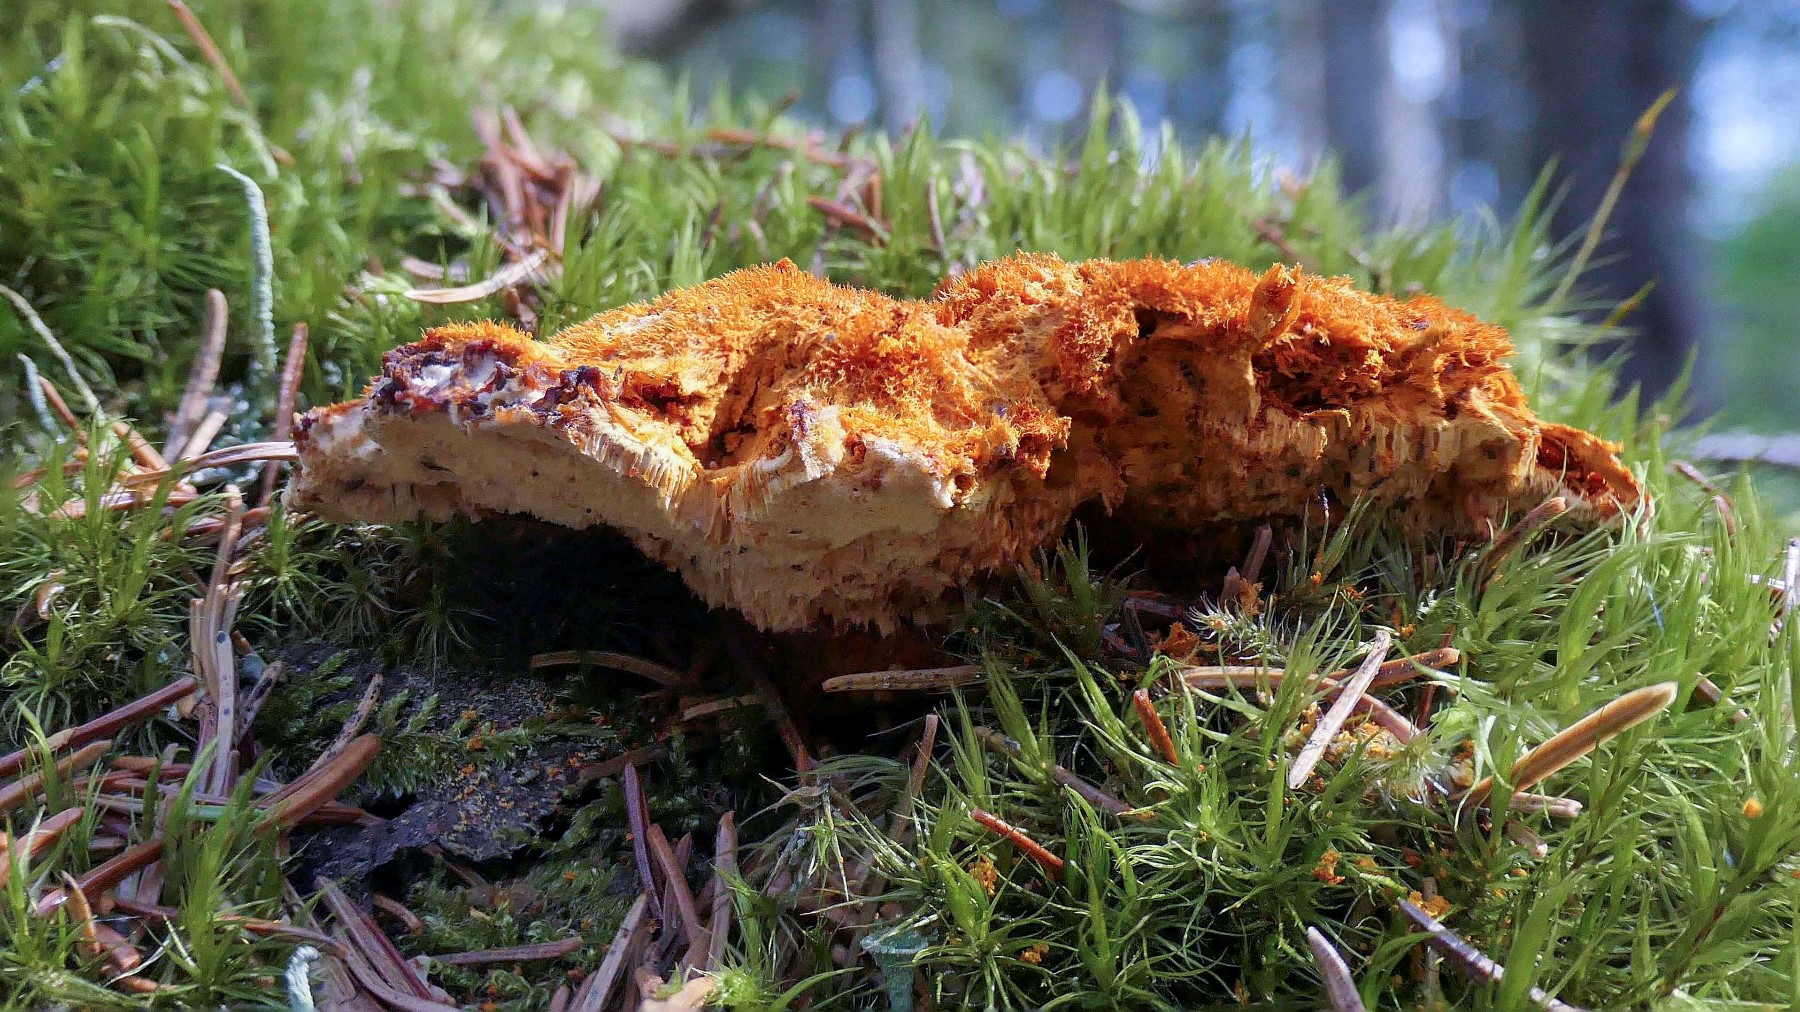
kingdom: Fungi
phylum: Basidiomycota
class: Agaricomycetes
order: Polyporales
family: Pycnoporellaceae
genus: Pycnoporellus
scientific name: Pycnoporellus fulgens
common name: flammeporesvamp
